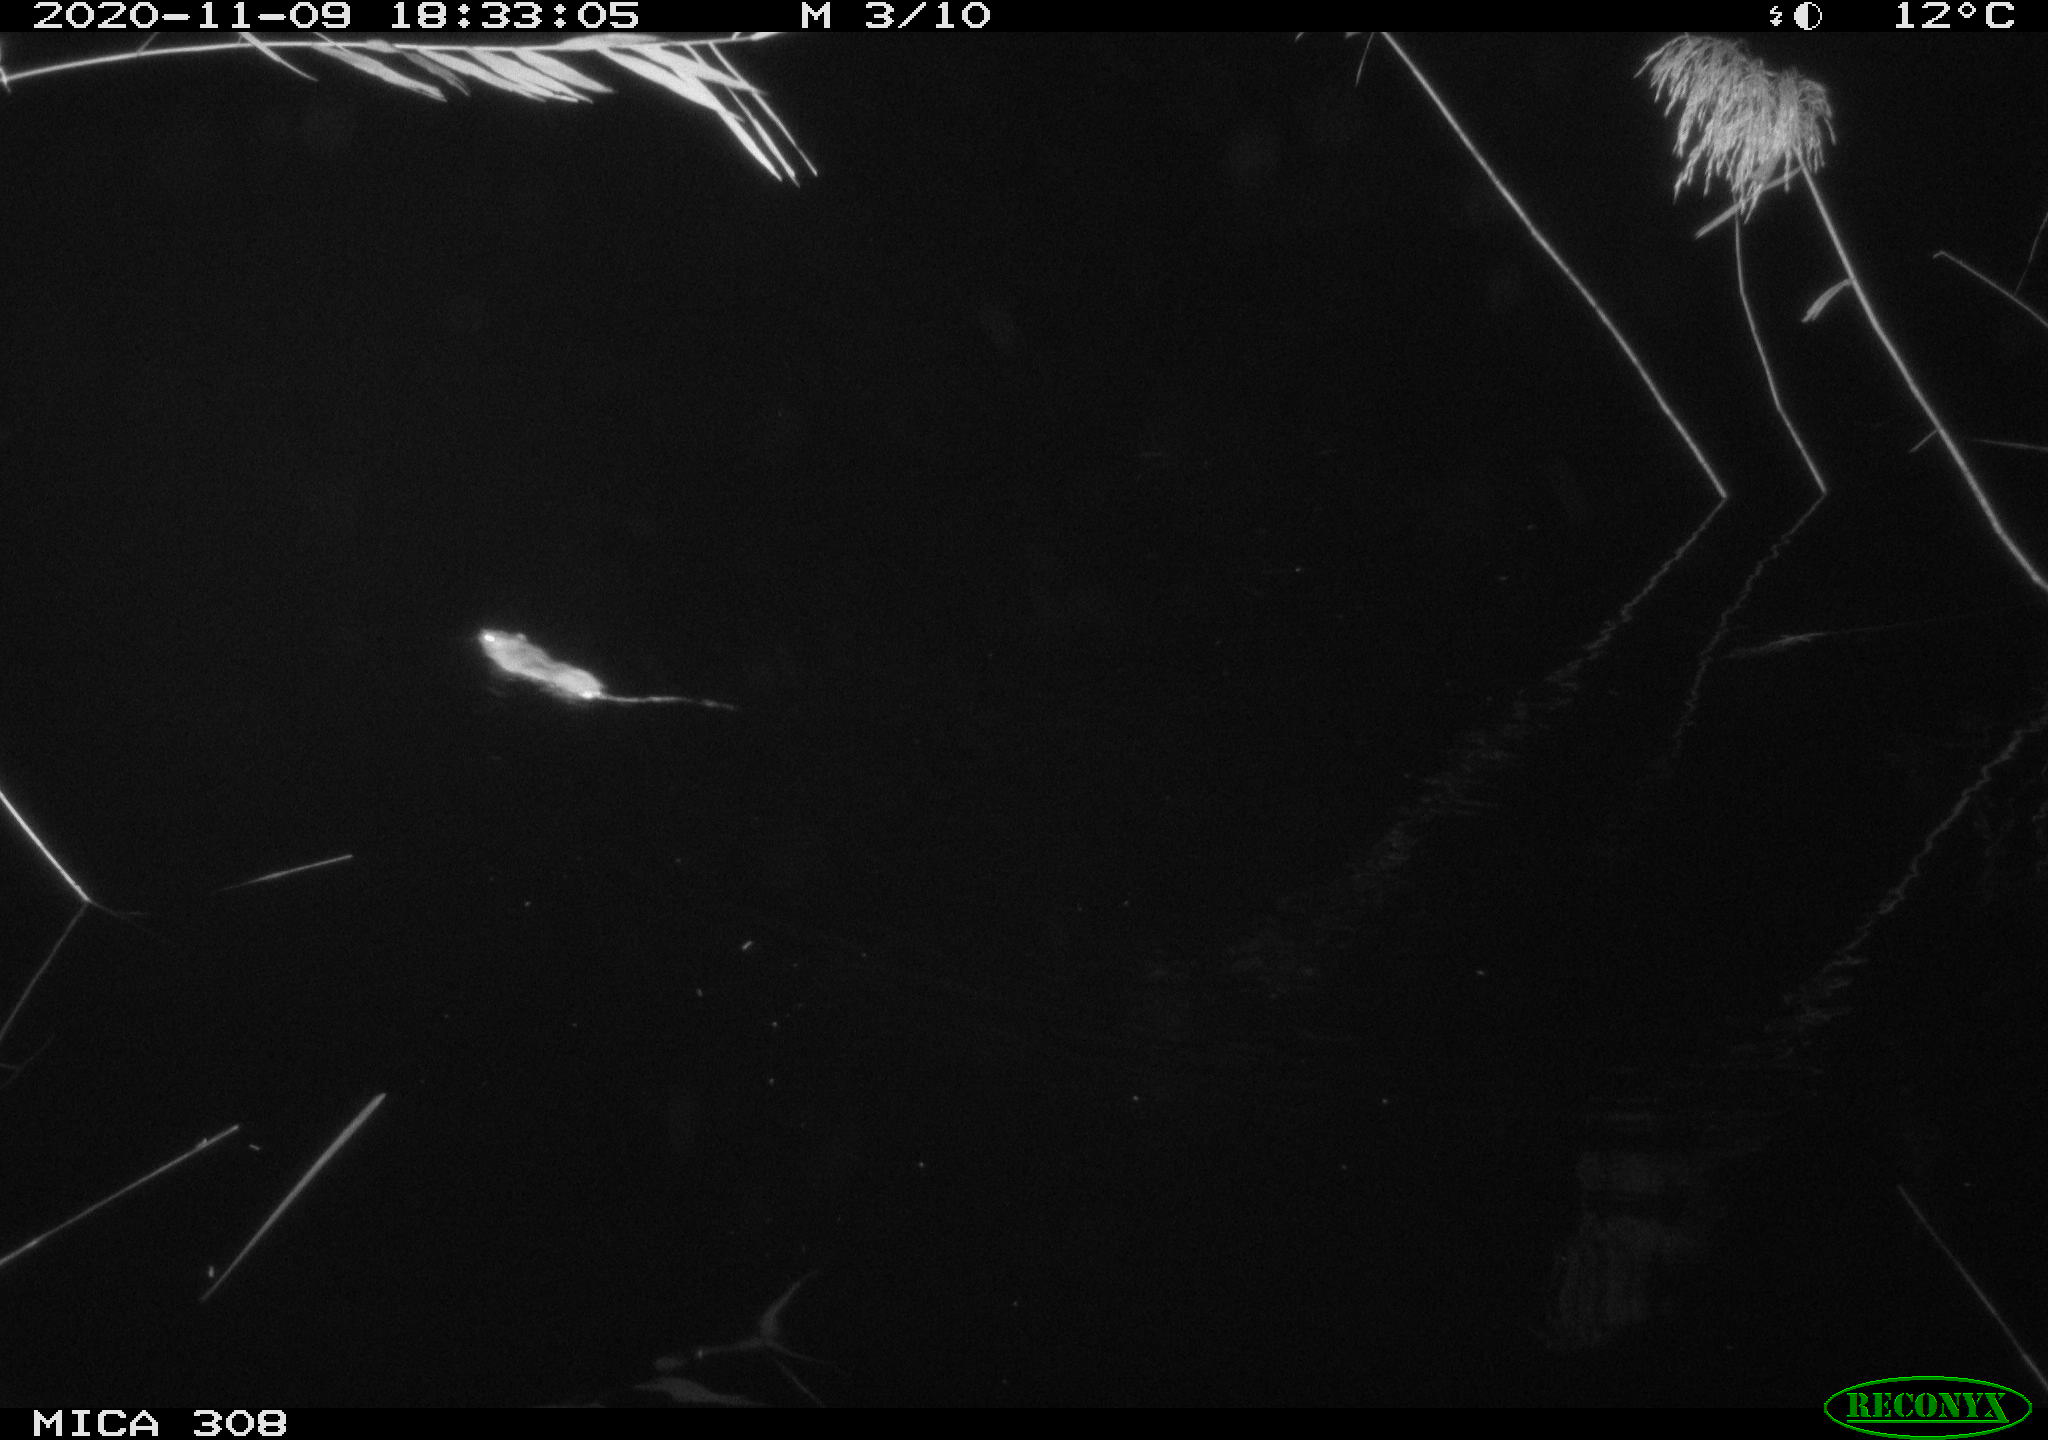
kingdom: Animalia
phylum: Chordata
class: Mammalia
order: Rodentia
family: Muridae
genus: Rattus
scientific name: Rattus norvegicus
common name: Brown rat
